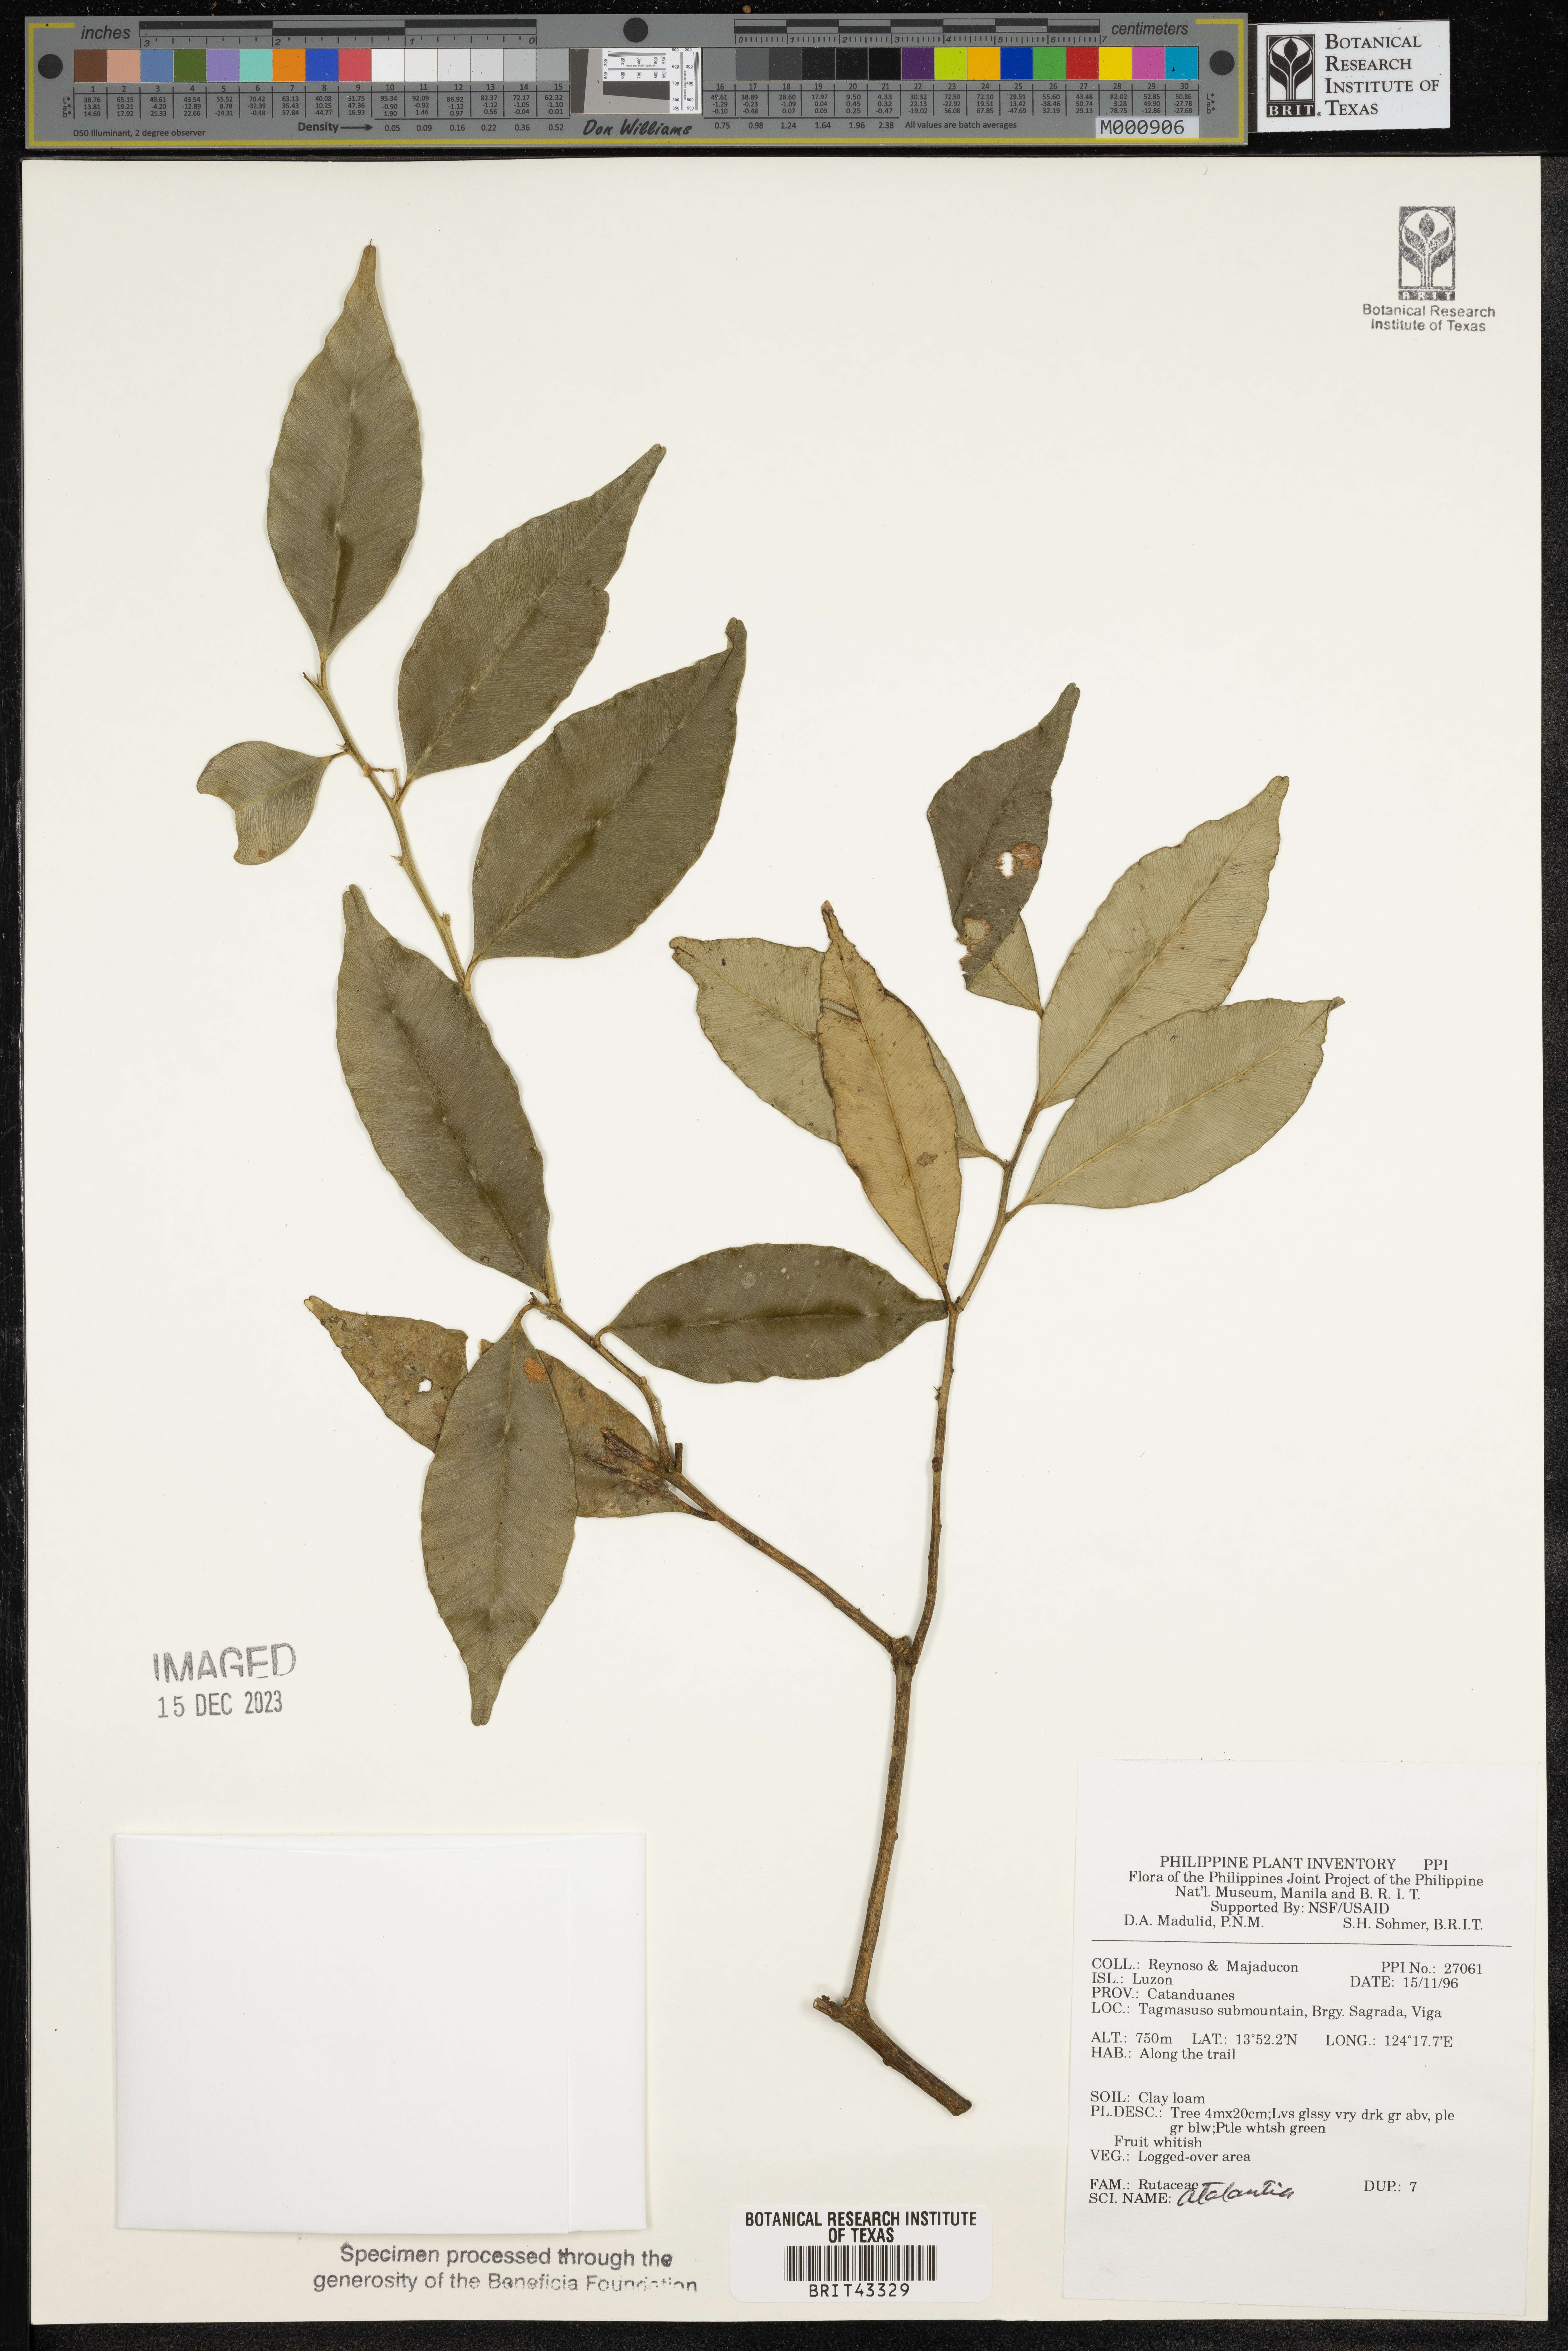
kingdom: Plantae
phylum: Tracheophyta
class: Magnoliopsida
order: Sapindales
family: Rutaceae
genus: Atalantia
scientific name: Atalantia
